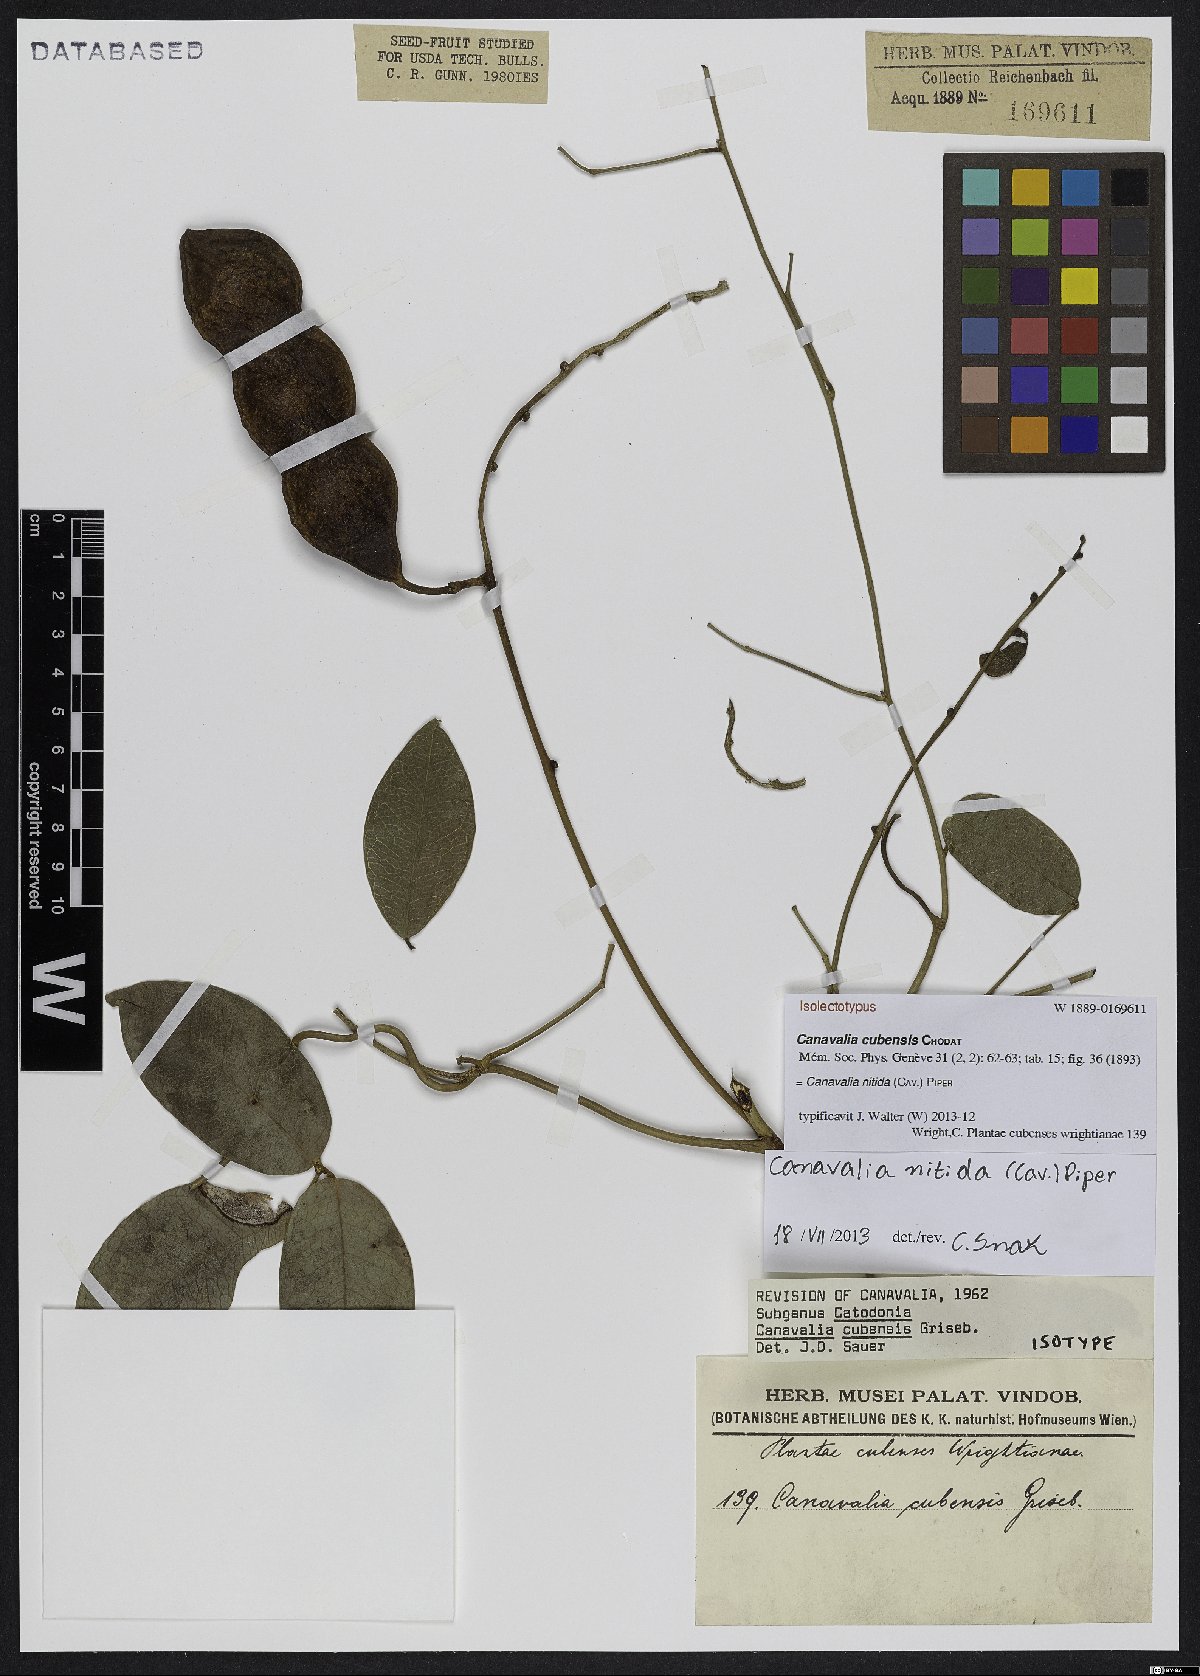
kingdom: Plantae
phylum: Tracheophyta
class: Magnoliopsida
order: Fabales
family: Fabaceae
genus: Canavalia
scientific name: Canavalia nitida
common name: Cathie's-bean
